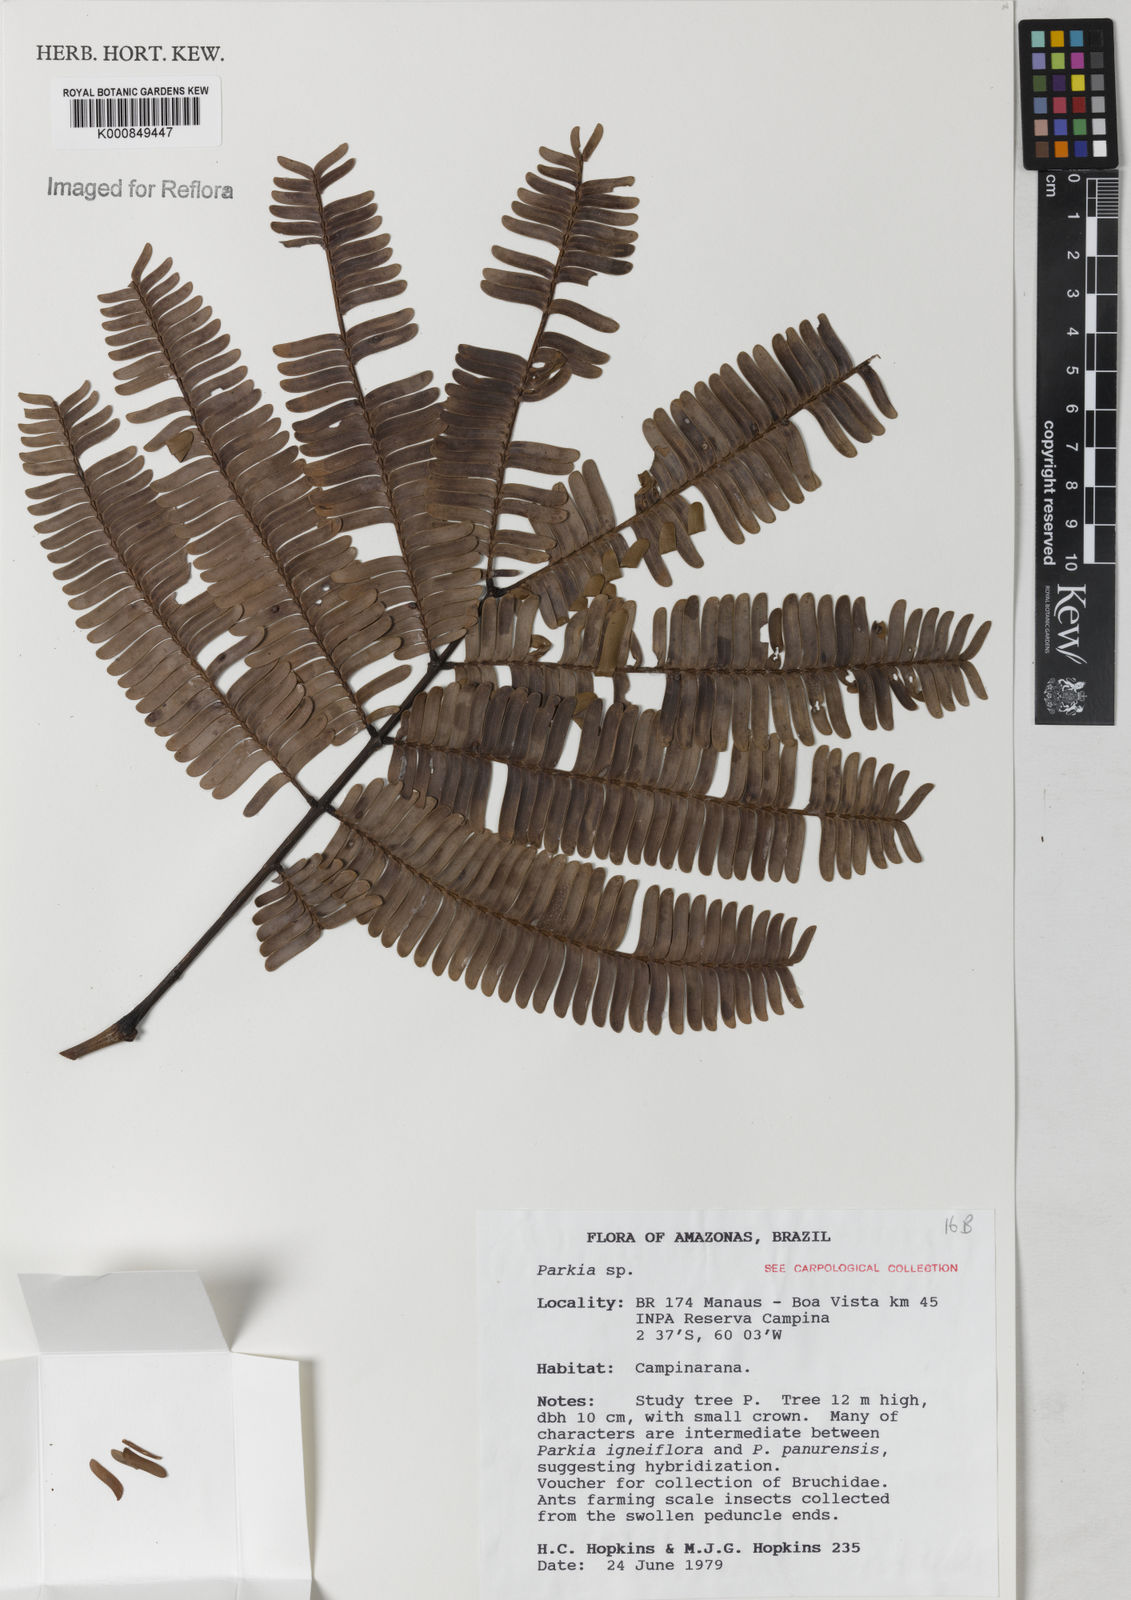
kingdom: Plantae
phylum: Tracheophyta
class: Magnoliopsida
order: Fabales
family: Fabaceae
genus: Parkia
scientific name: Parkia
